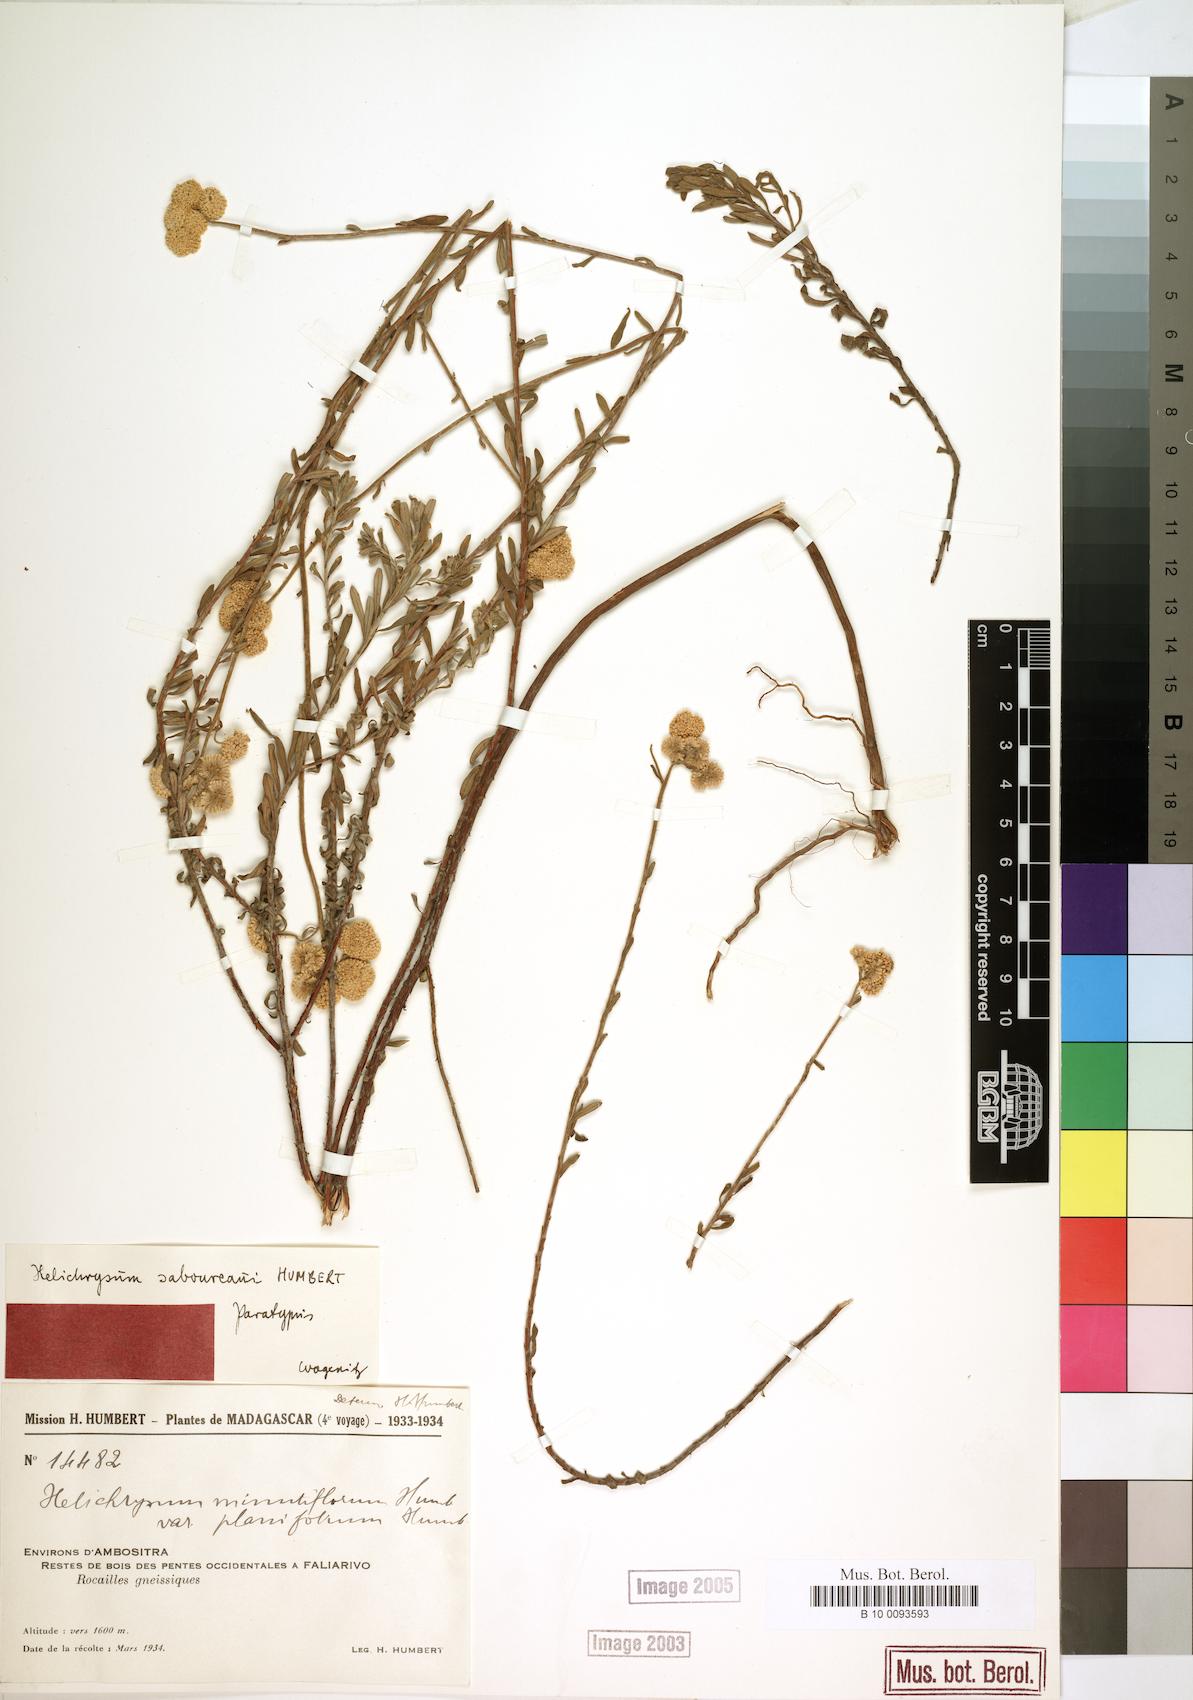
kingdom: Plantae
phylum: Tracheophyta
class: Magnoliopsida
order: Asterales
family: Asteraceae
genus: Helichrysum
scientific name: Helichrysum saboureaui
